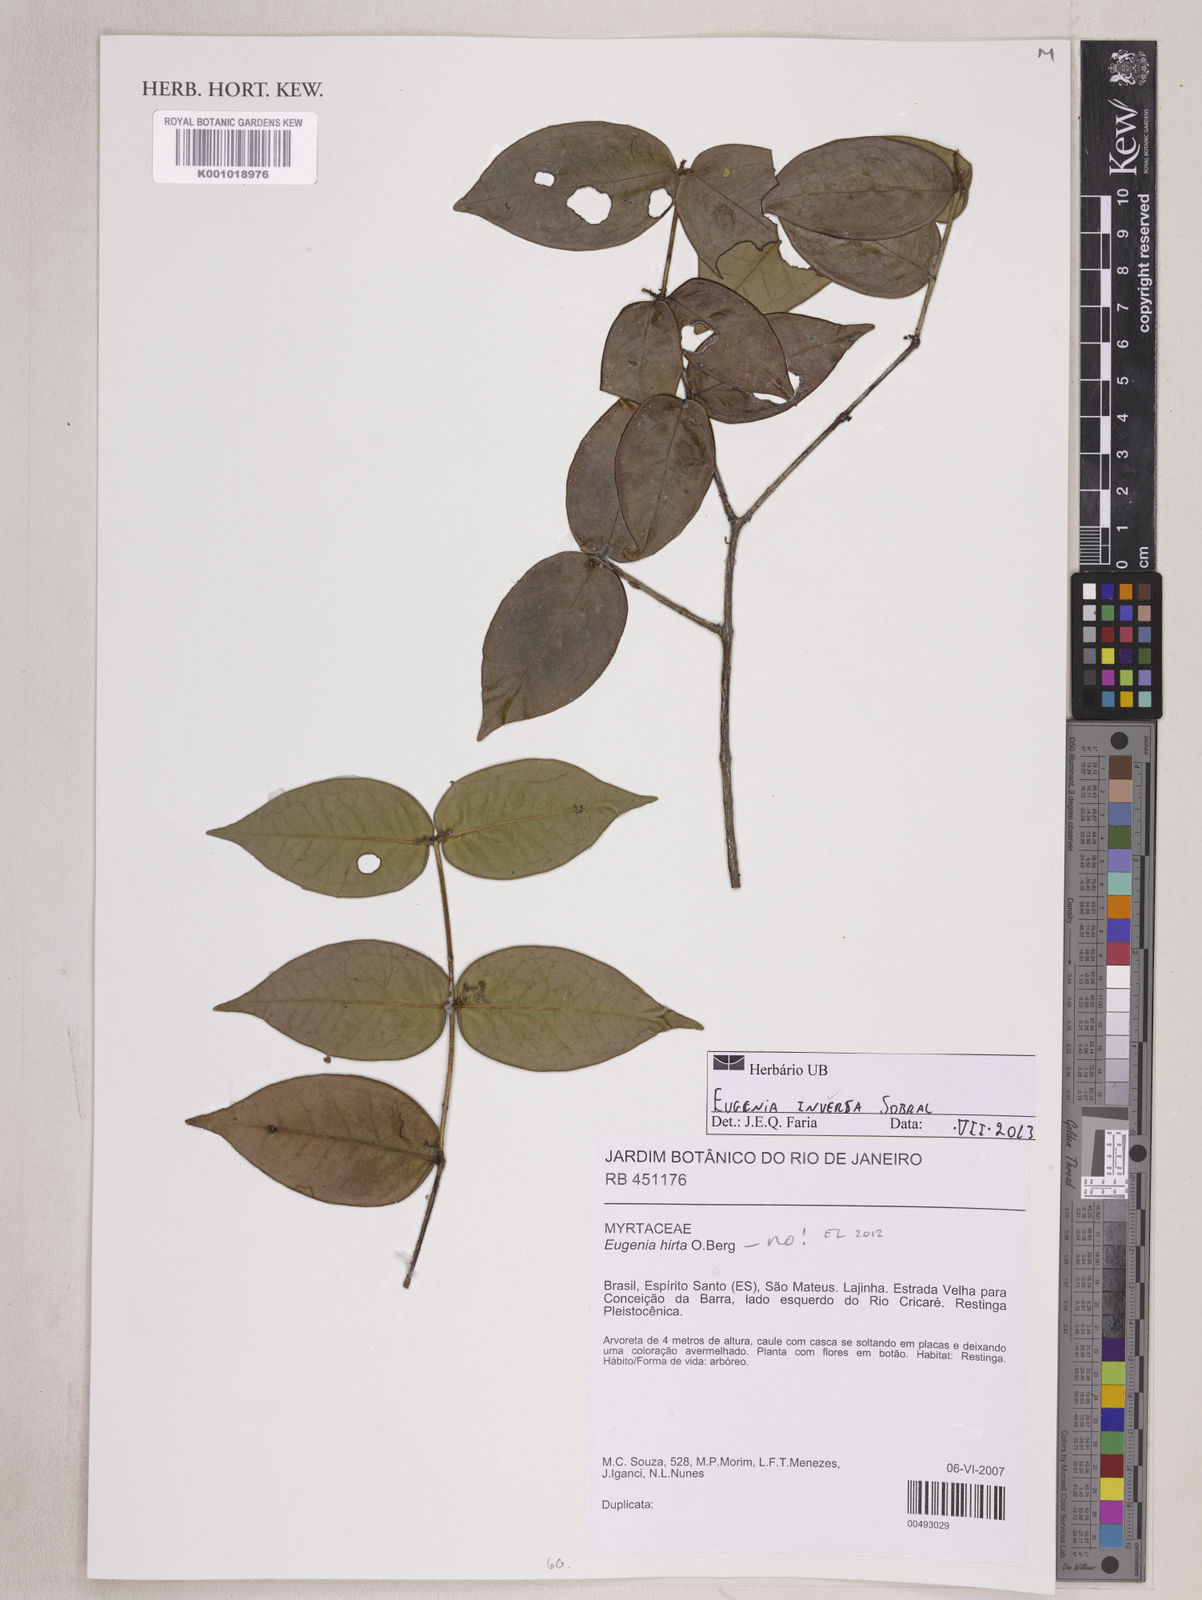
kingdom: Plantae
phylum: Tracheophyta
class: Magnoliopsida
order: Myrtales
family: Myrtaceae
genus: Eugenia
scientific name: Eugenia inversa
